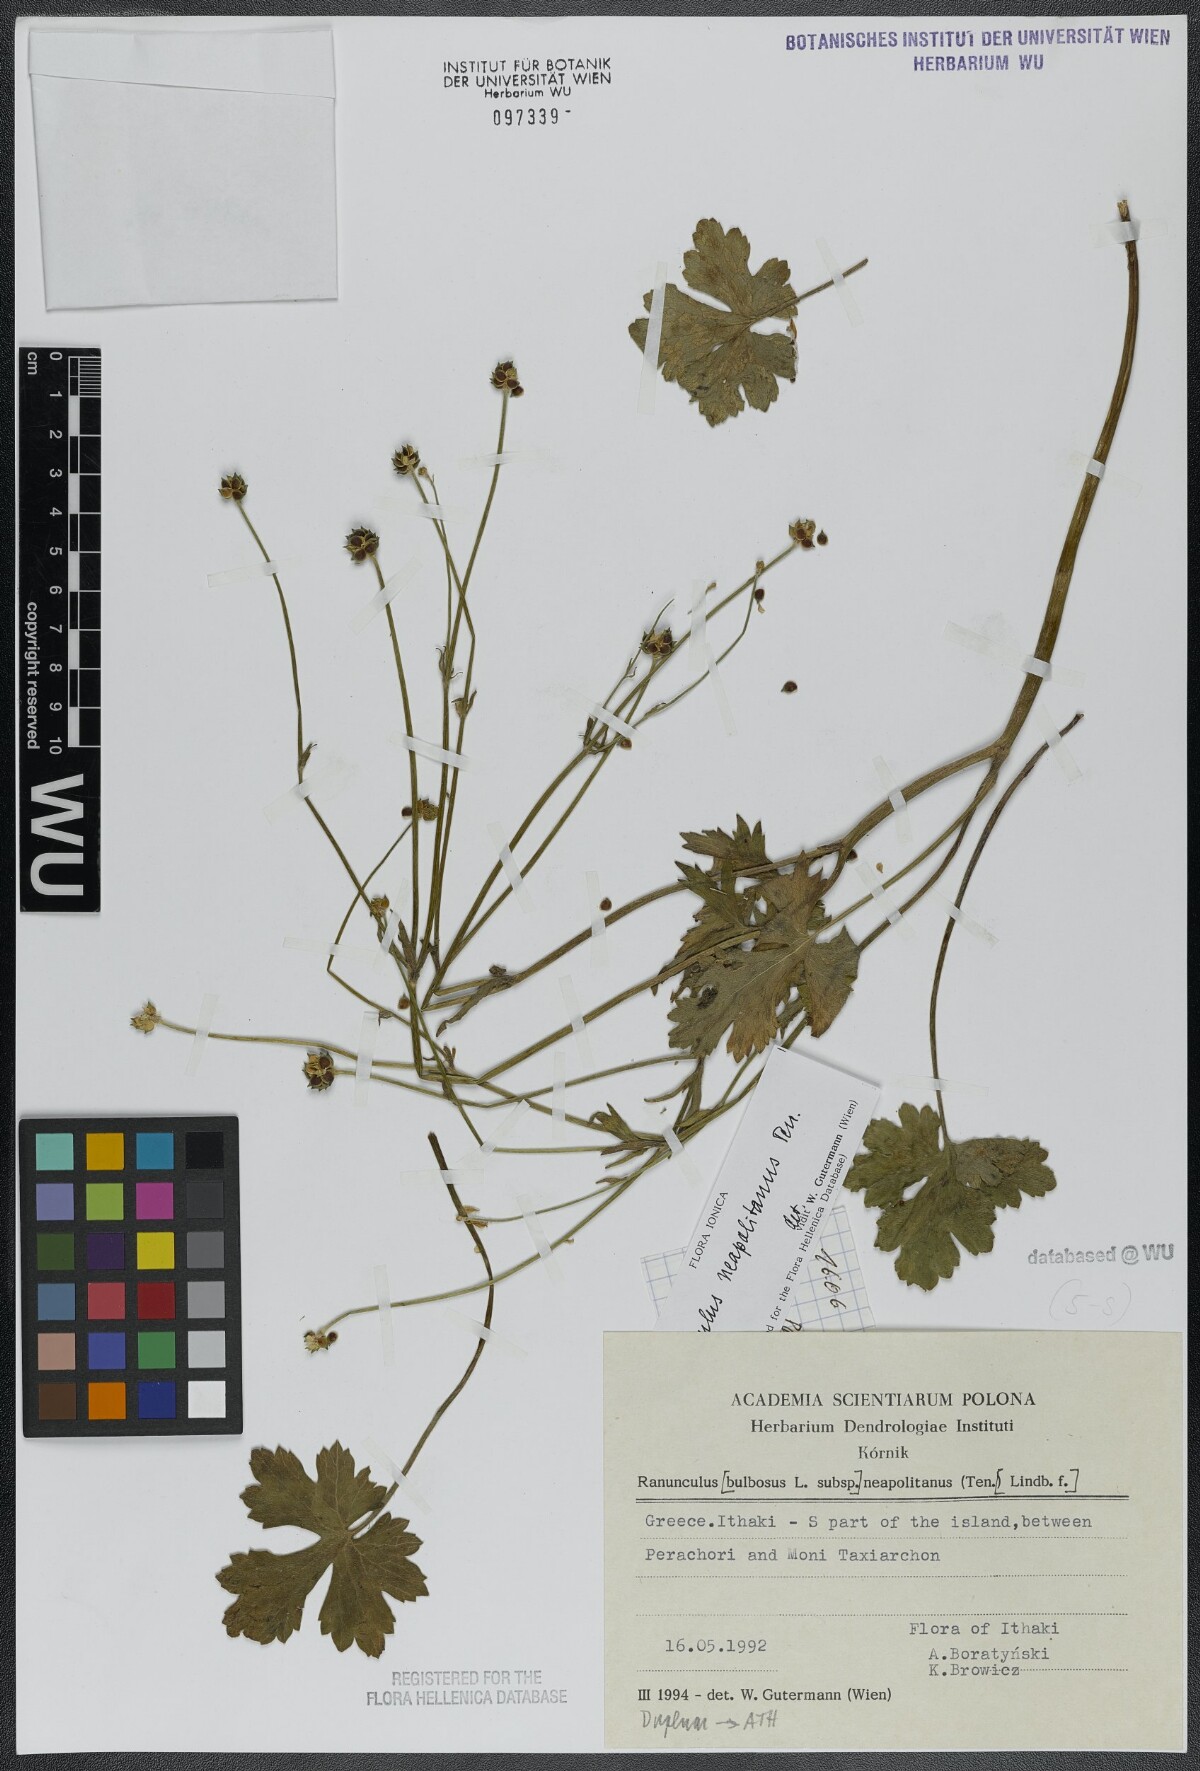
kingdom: Plantae
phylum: Tracheophyta
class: Magnoliopsida
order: Ranunculales
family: Ranunculaceae
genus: Ranunculus
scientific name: Ranunculus neapolitanus
